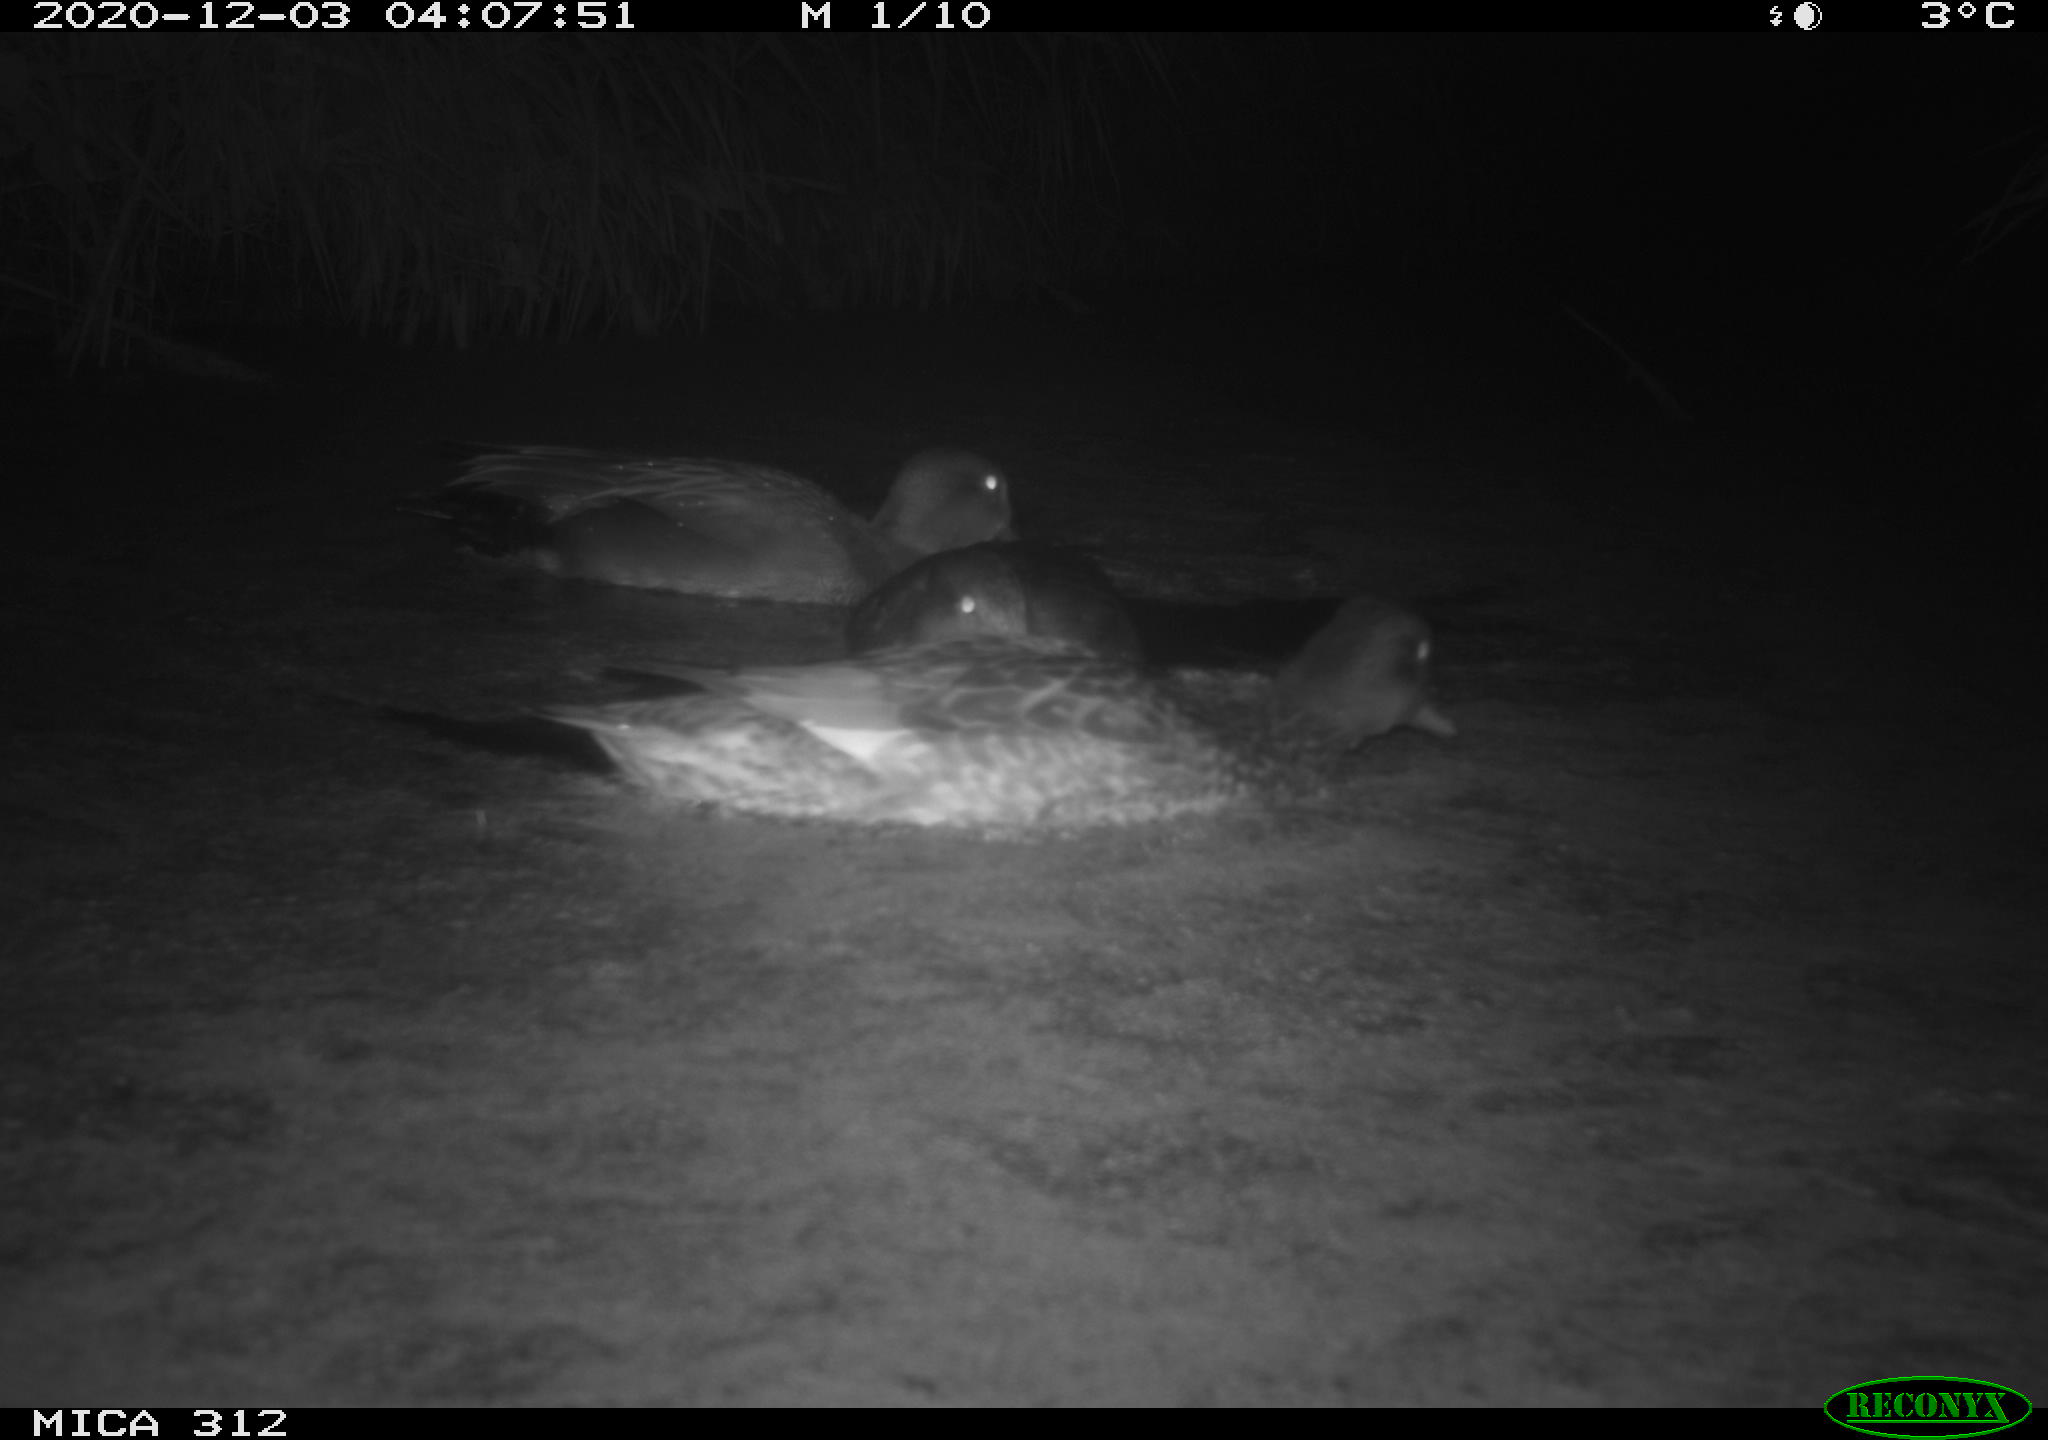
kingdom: Animalia
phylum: Chordata
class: Aves
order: Anseriformes
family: Anatidae
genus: Mareca
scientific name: Mareca strepera
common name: Gadwall
